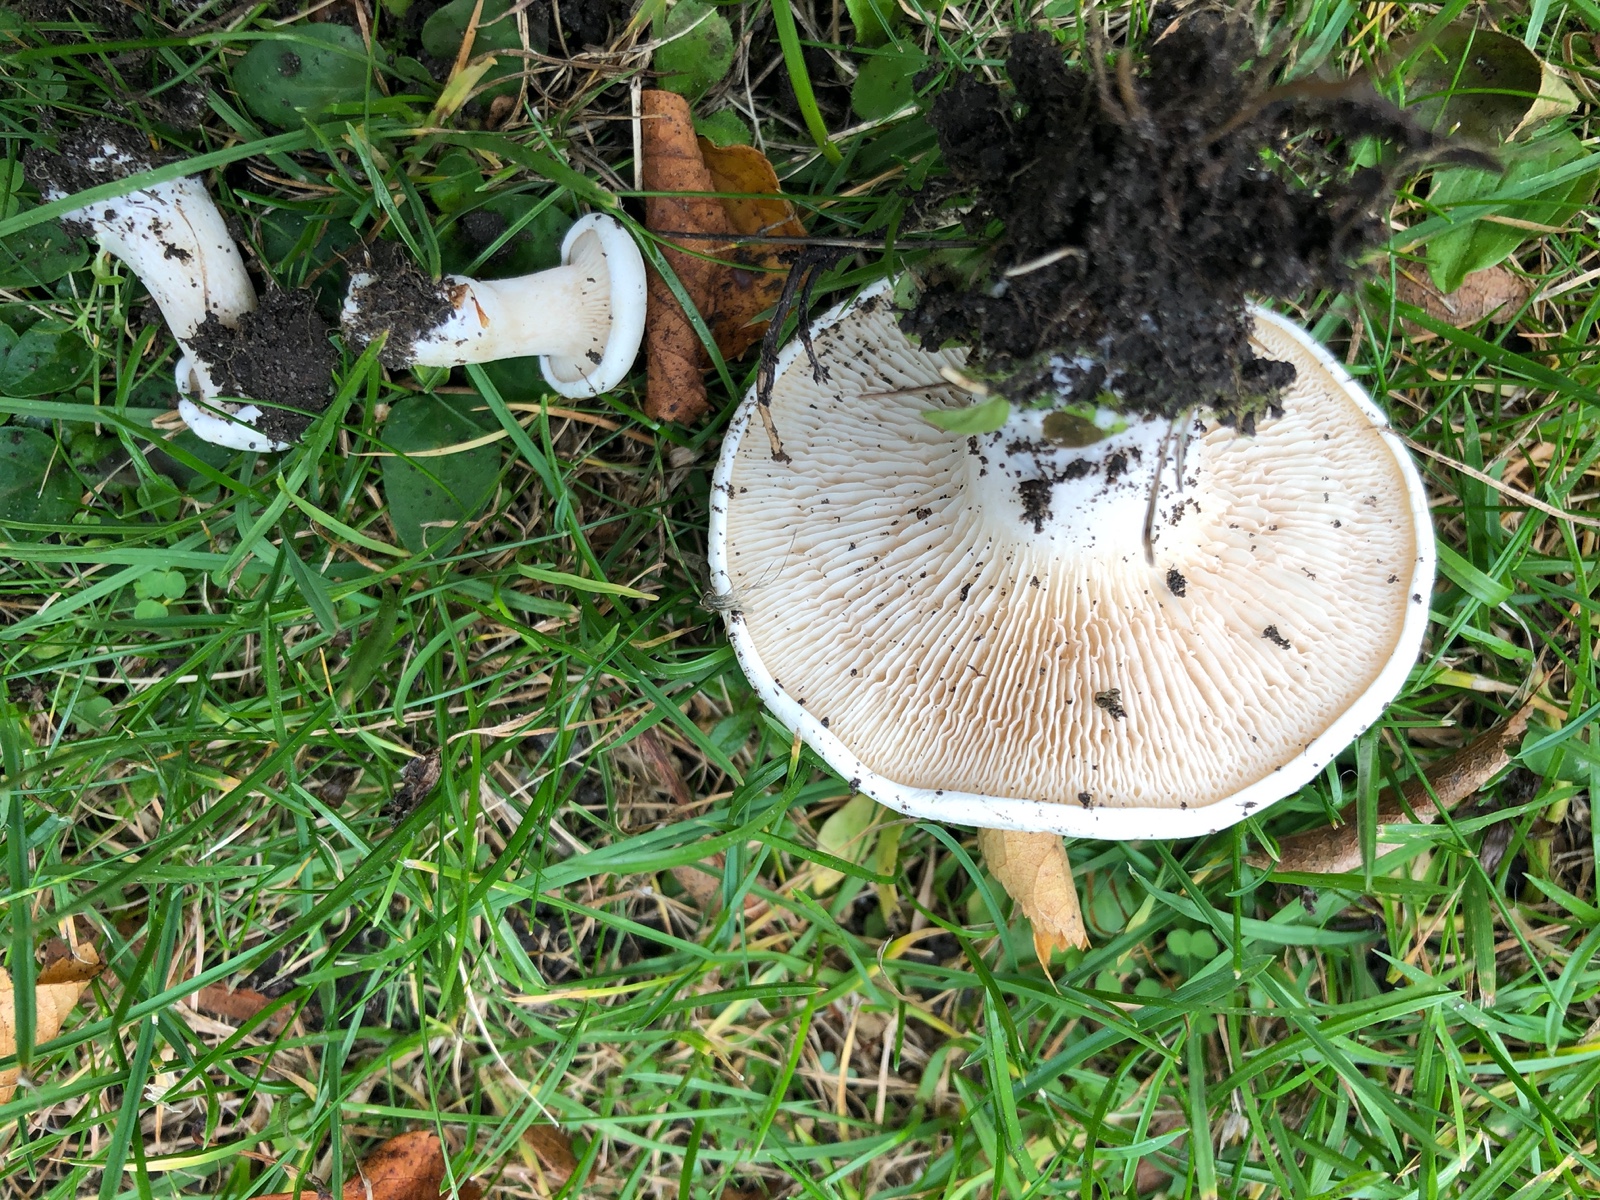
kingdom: Fungi
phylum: Basidiomycota
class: Agaricomycetes
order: Agaricales
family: Entolomataceae
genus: Clitopilus
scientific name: Clitopilus prunulus
